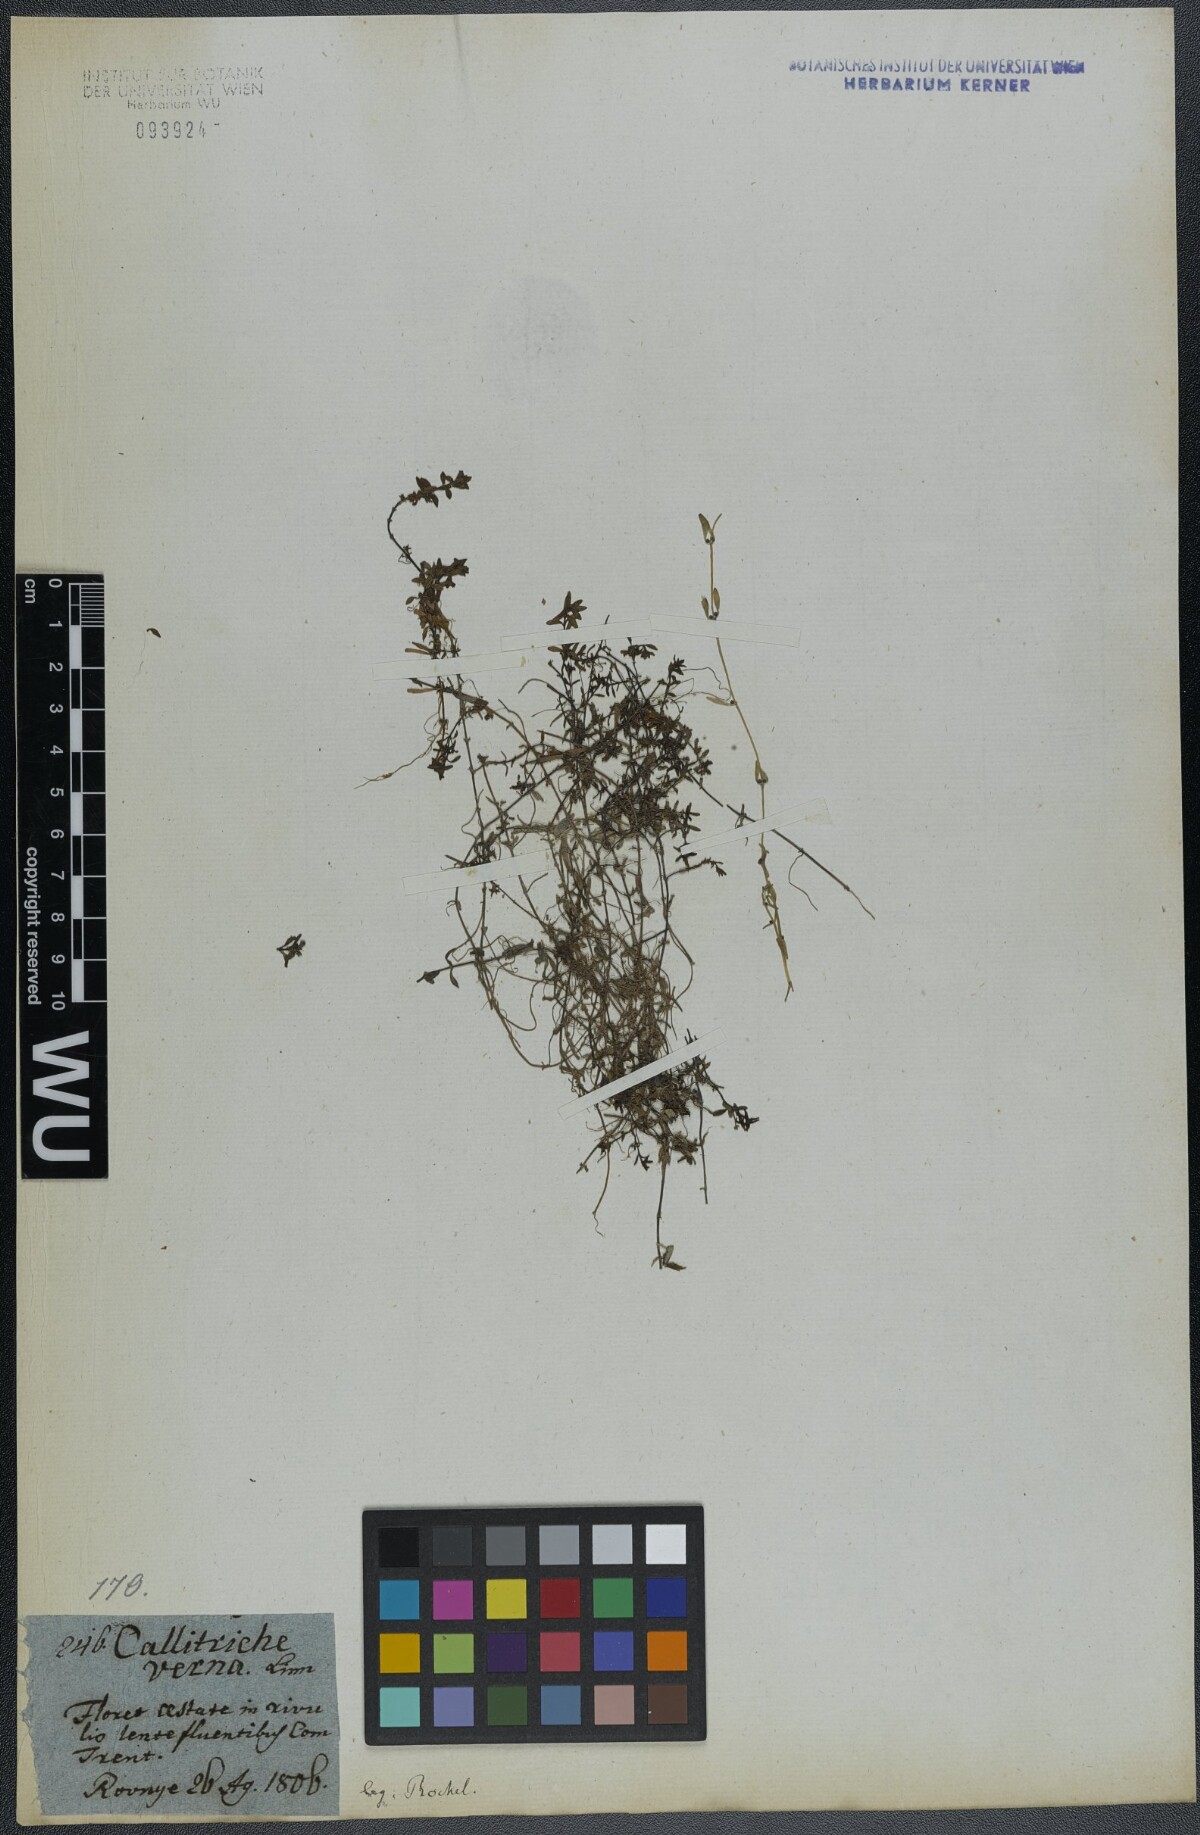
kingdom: Plantae
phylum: Tracheophyta
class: Magnoliopsida
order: Lamiales
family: Plantaginaceae
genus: Callitriche
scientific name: Callitriche palustris
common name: Spring water-starwort
